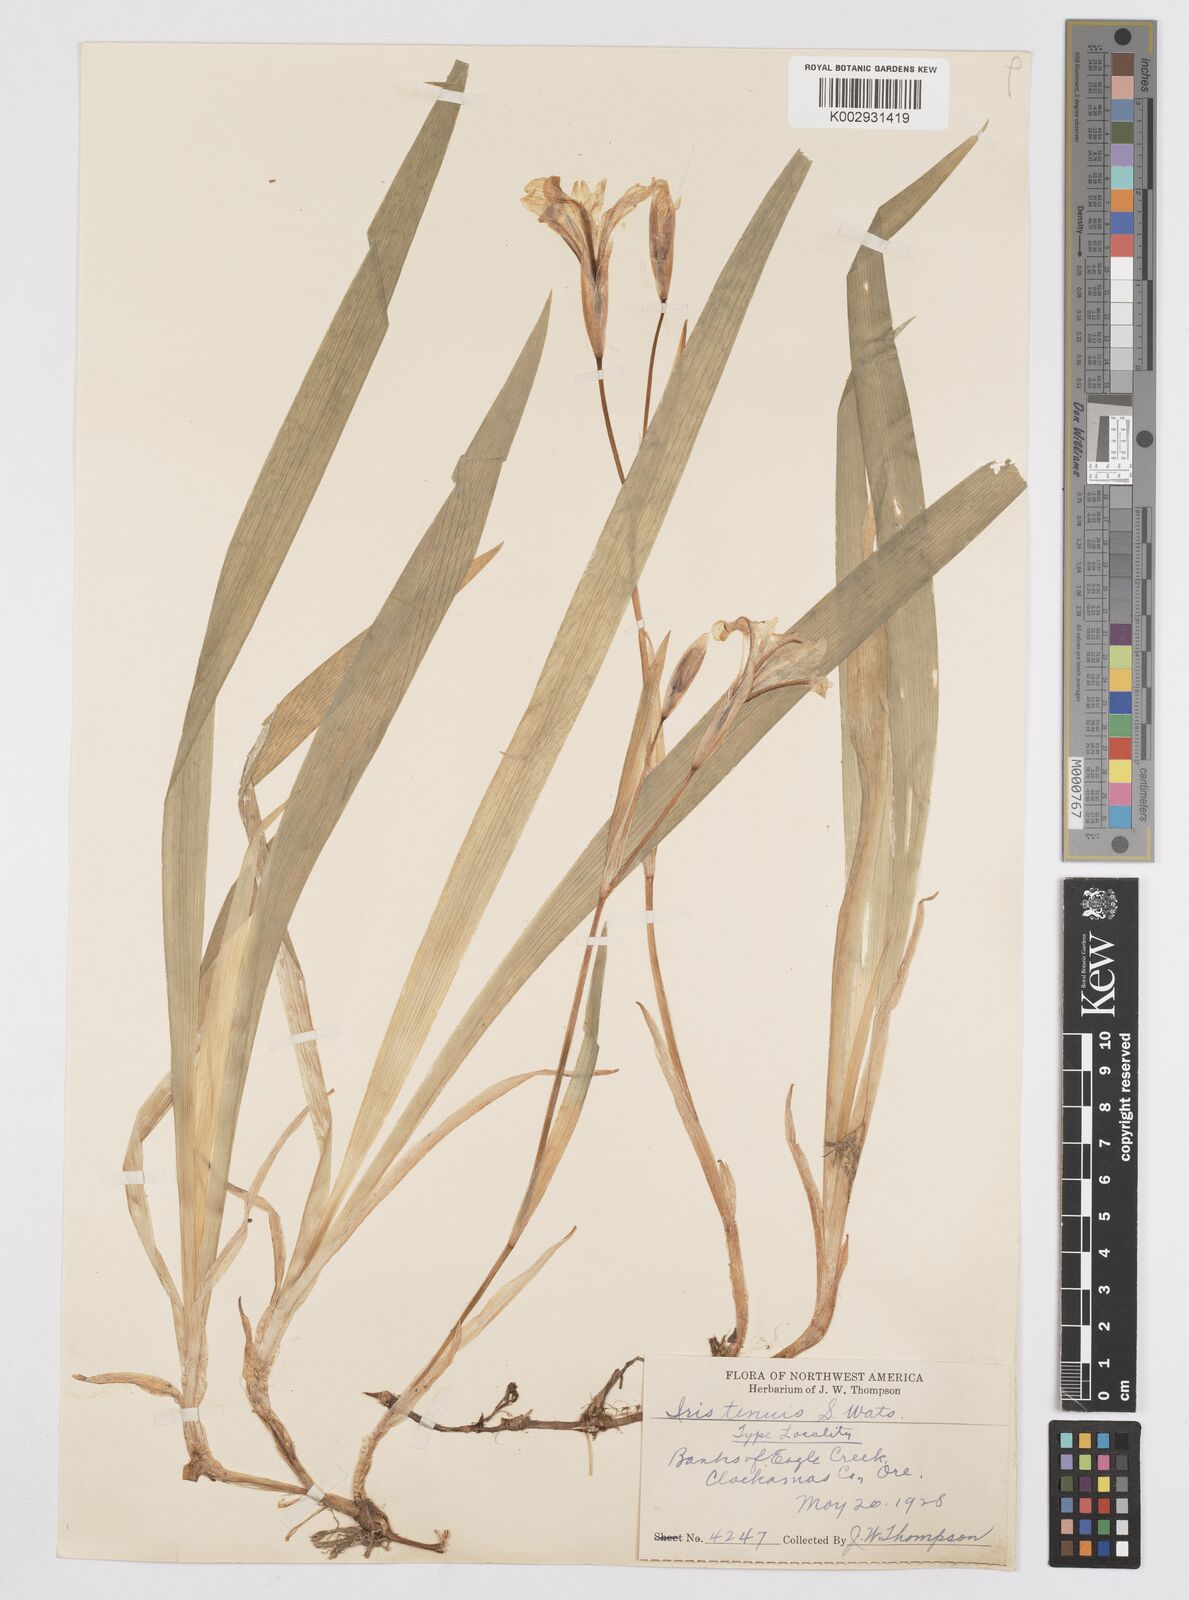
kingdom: Plantae
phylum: Tracheophyta
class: Liliopsida
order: Asparagales
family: Iridaceae
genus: Iris
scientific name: Iris tenuis
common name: Clackamas iris
